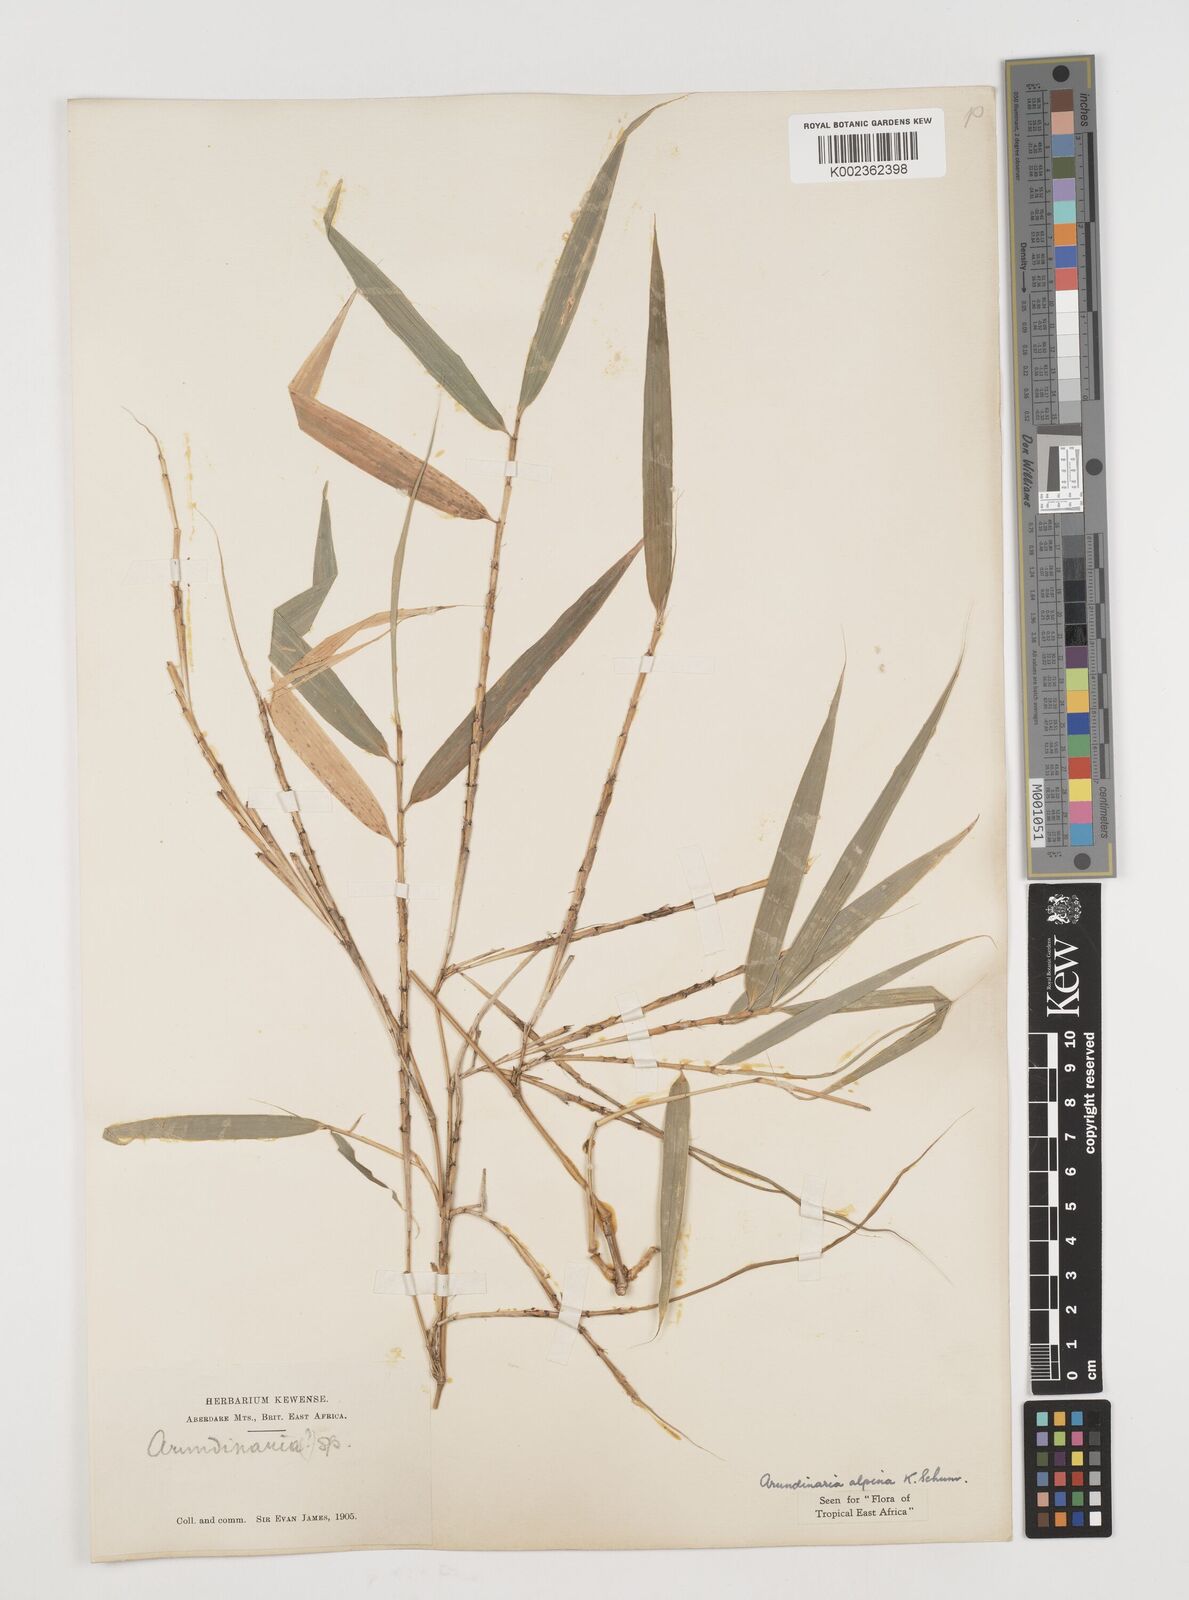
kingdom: Plantae
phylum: Tracheophyta
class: Liliopsida
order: Poales
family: Poaceae
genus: Oldeania
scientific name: Oldeania alpina
